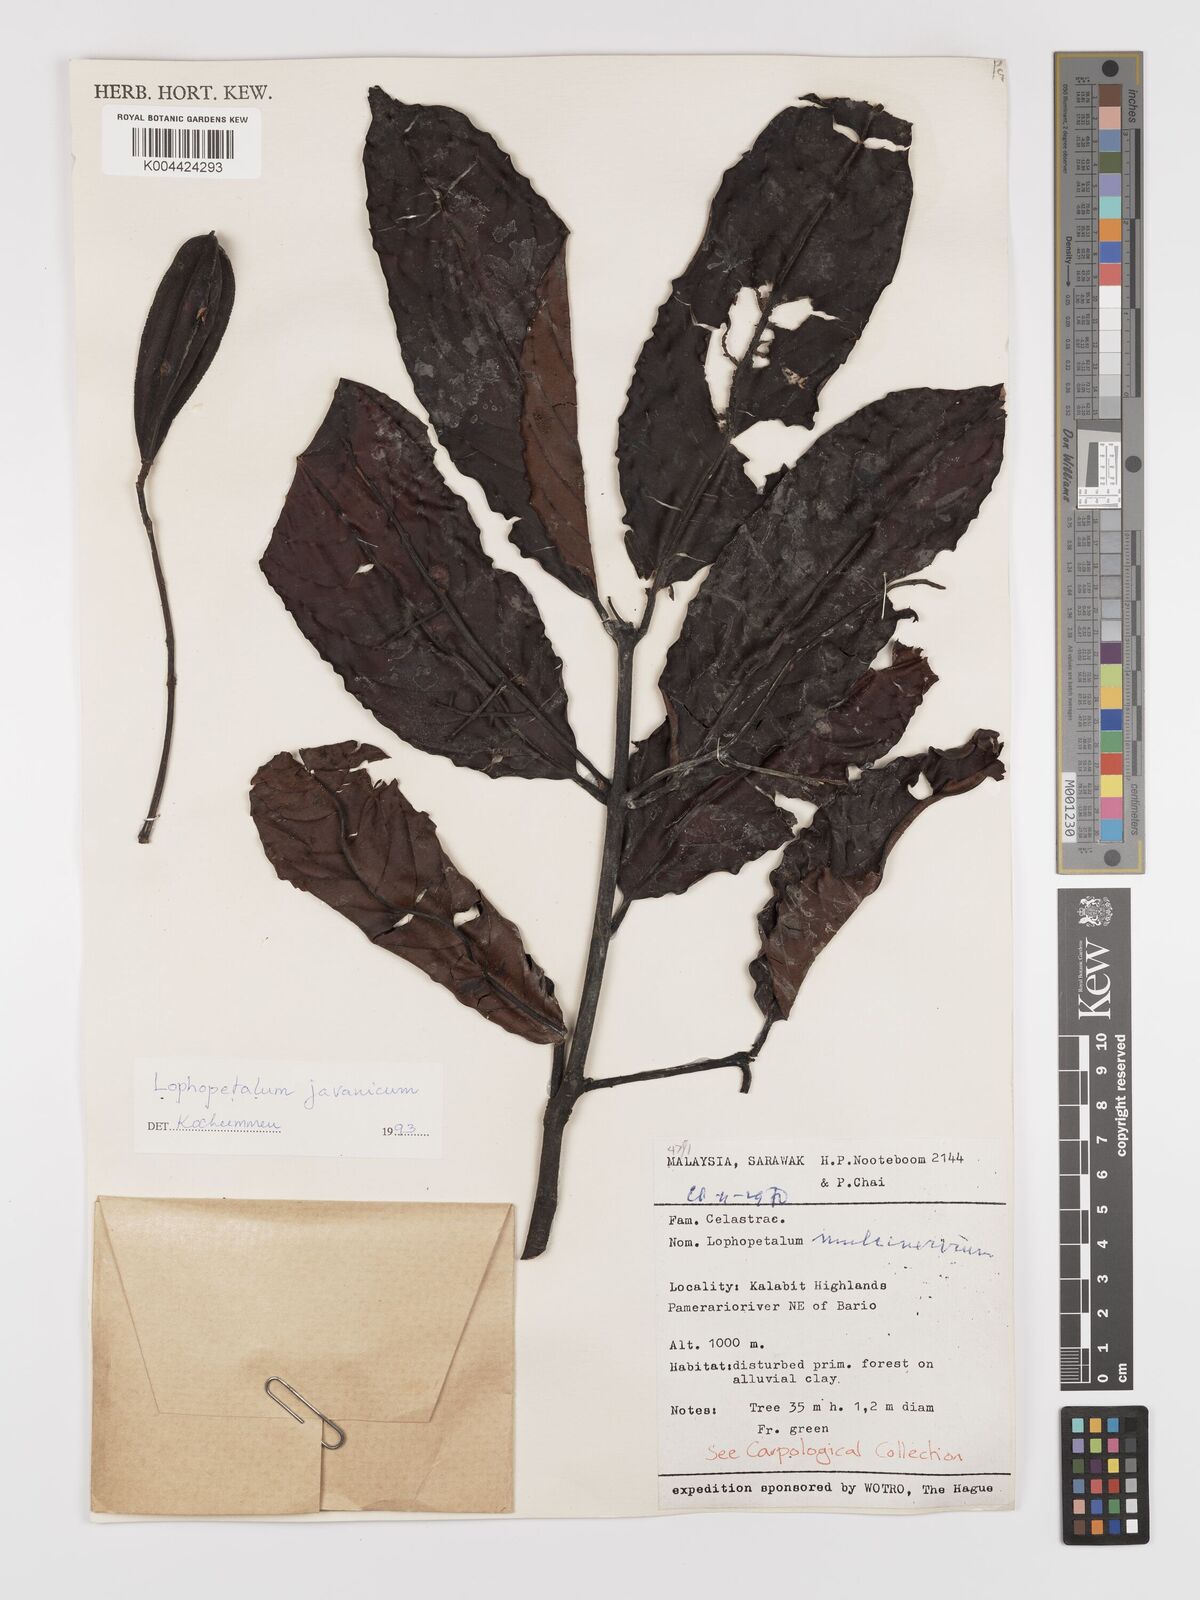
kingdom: Plantae
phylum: Tracheophyta
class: Magnoliopsida
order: Celastrales
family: Celastraceae
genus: Lophopetalum
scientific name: Lophopetalum javanicum
